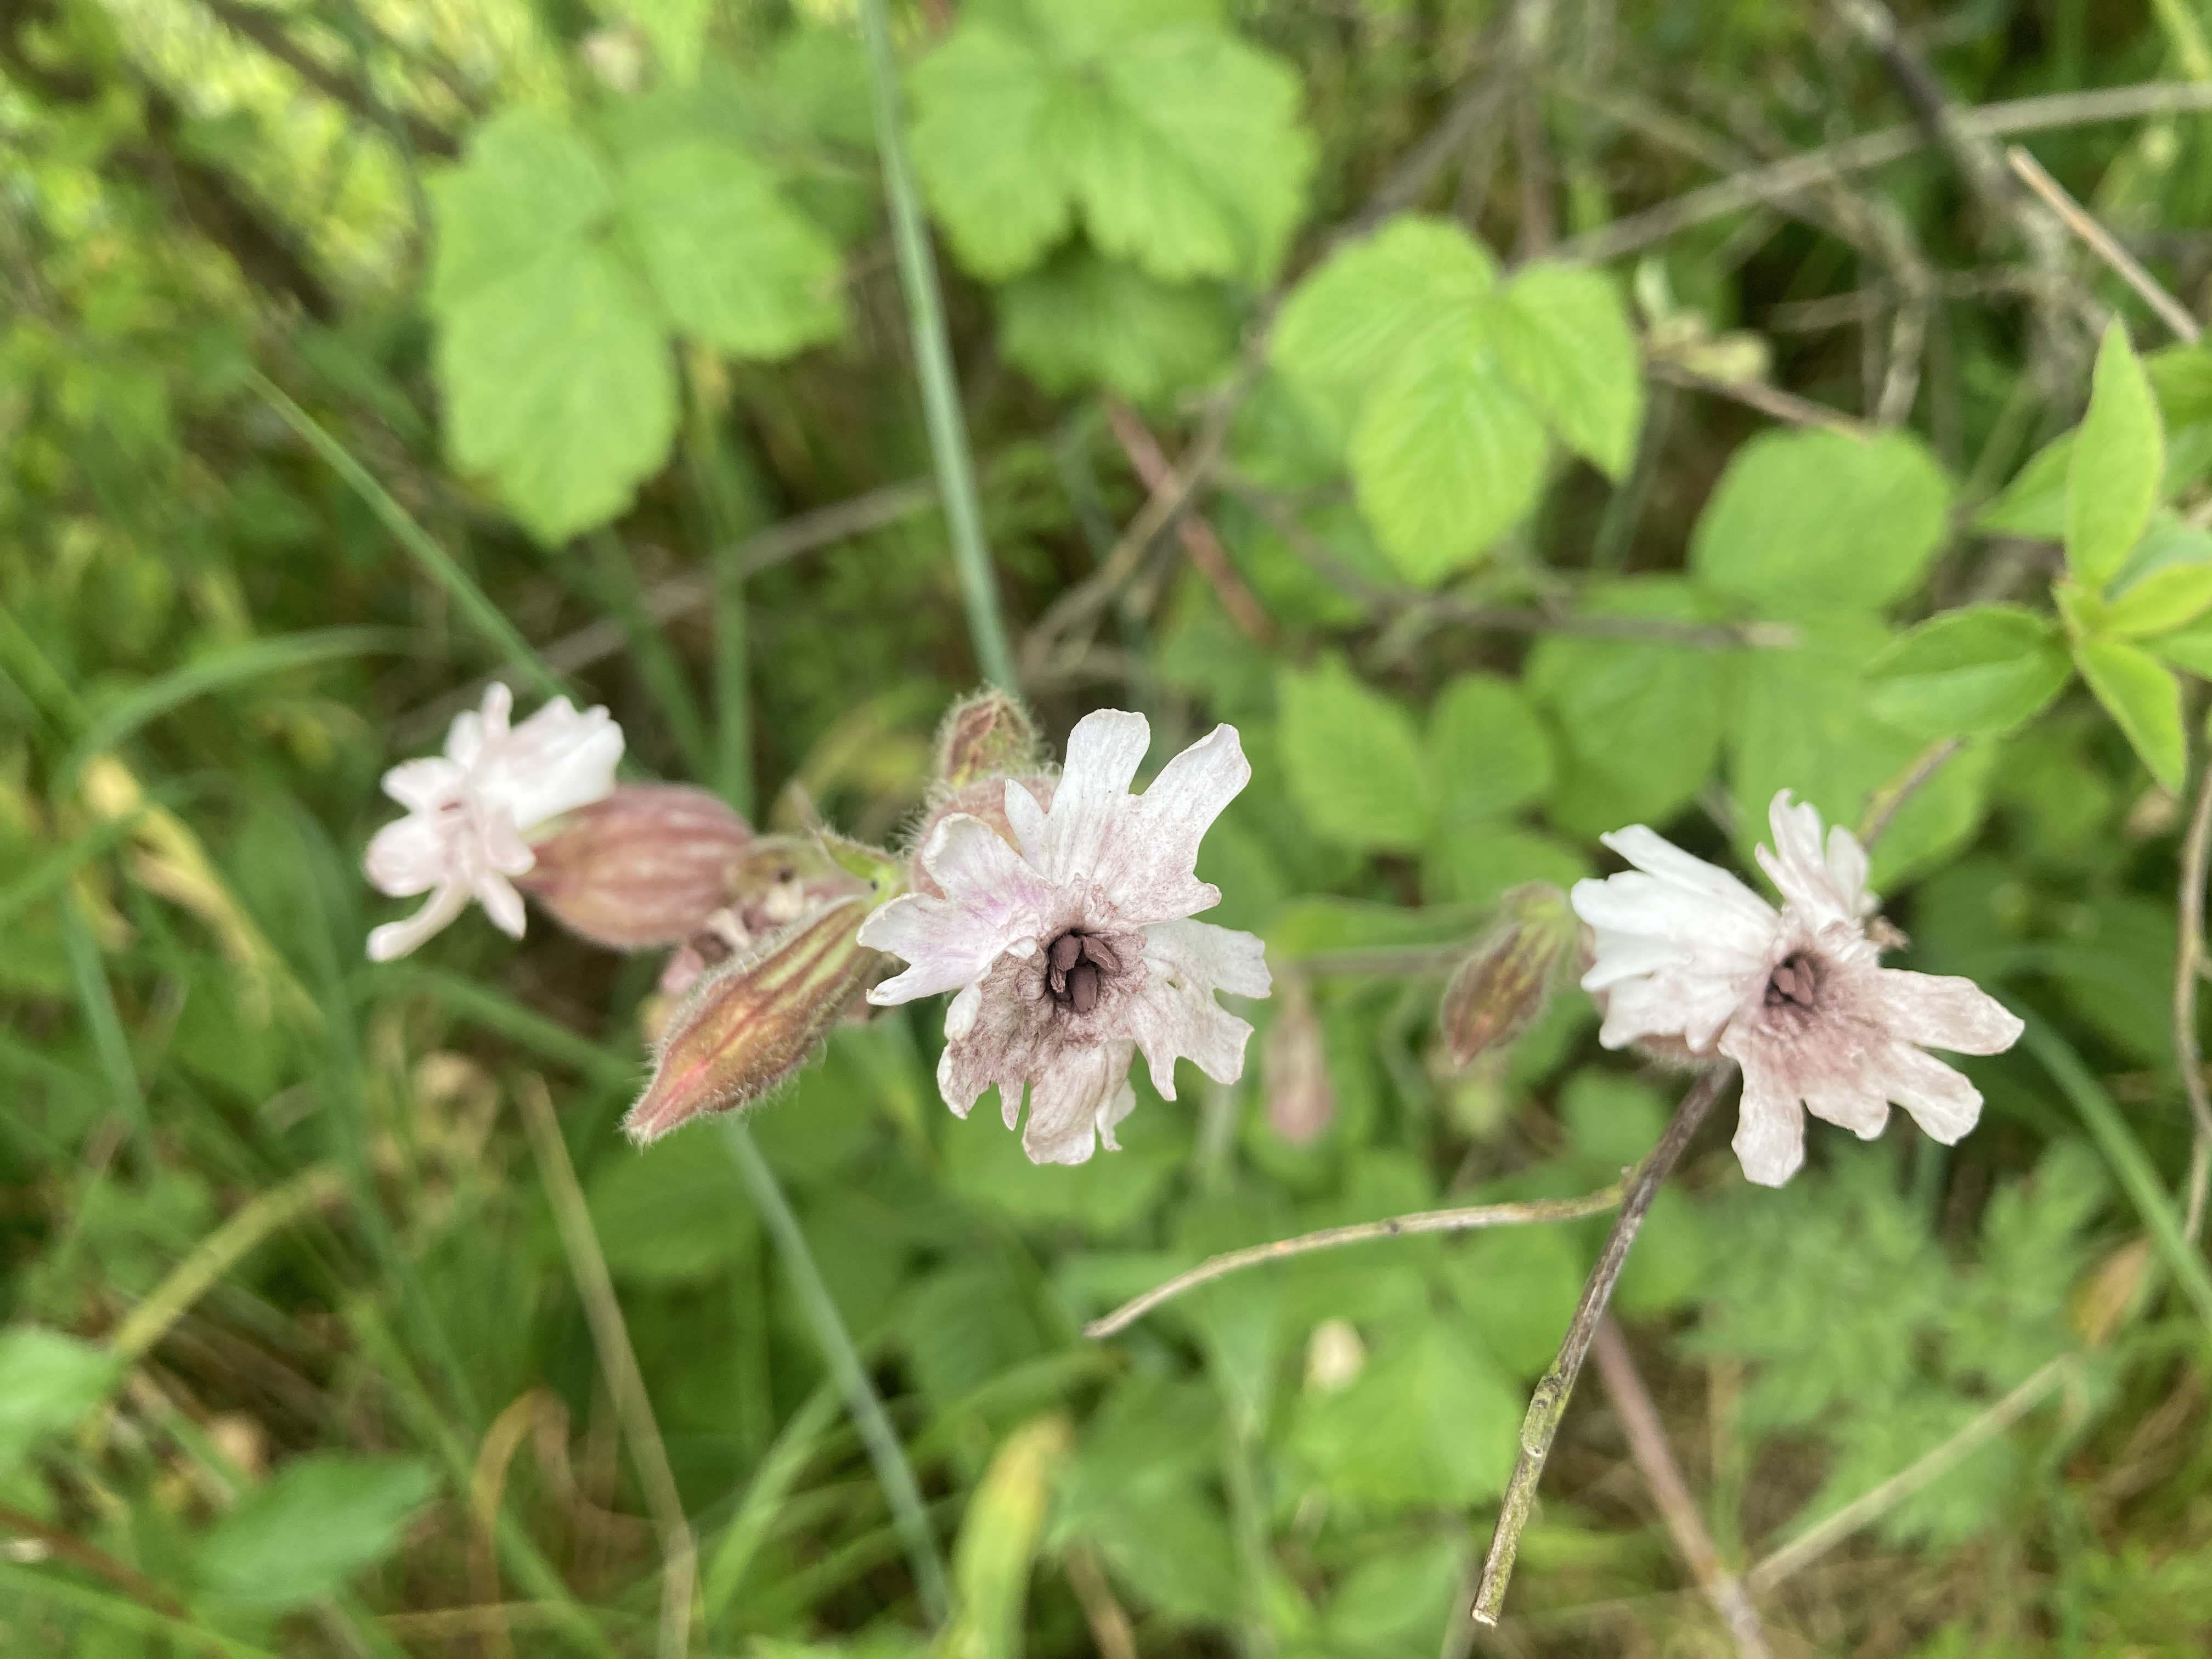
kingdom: Fungi
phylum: Basidiomycota
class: Microbotryomycetes
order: Microbotryales
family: Microbotryaceae
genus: Microbotryum
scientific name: Microbotryum lychnidis-dioicae
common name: Campion anther smut
